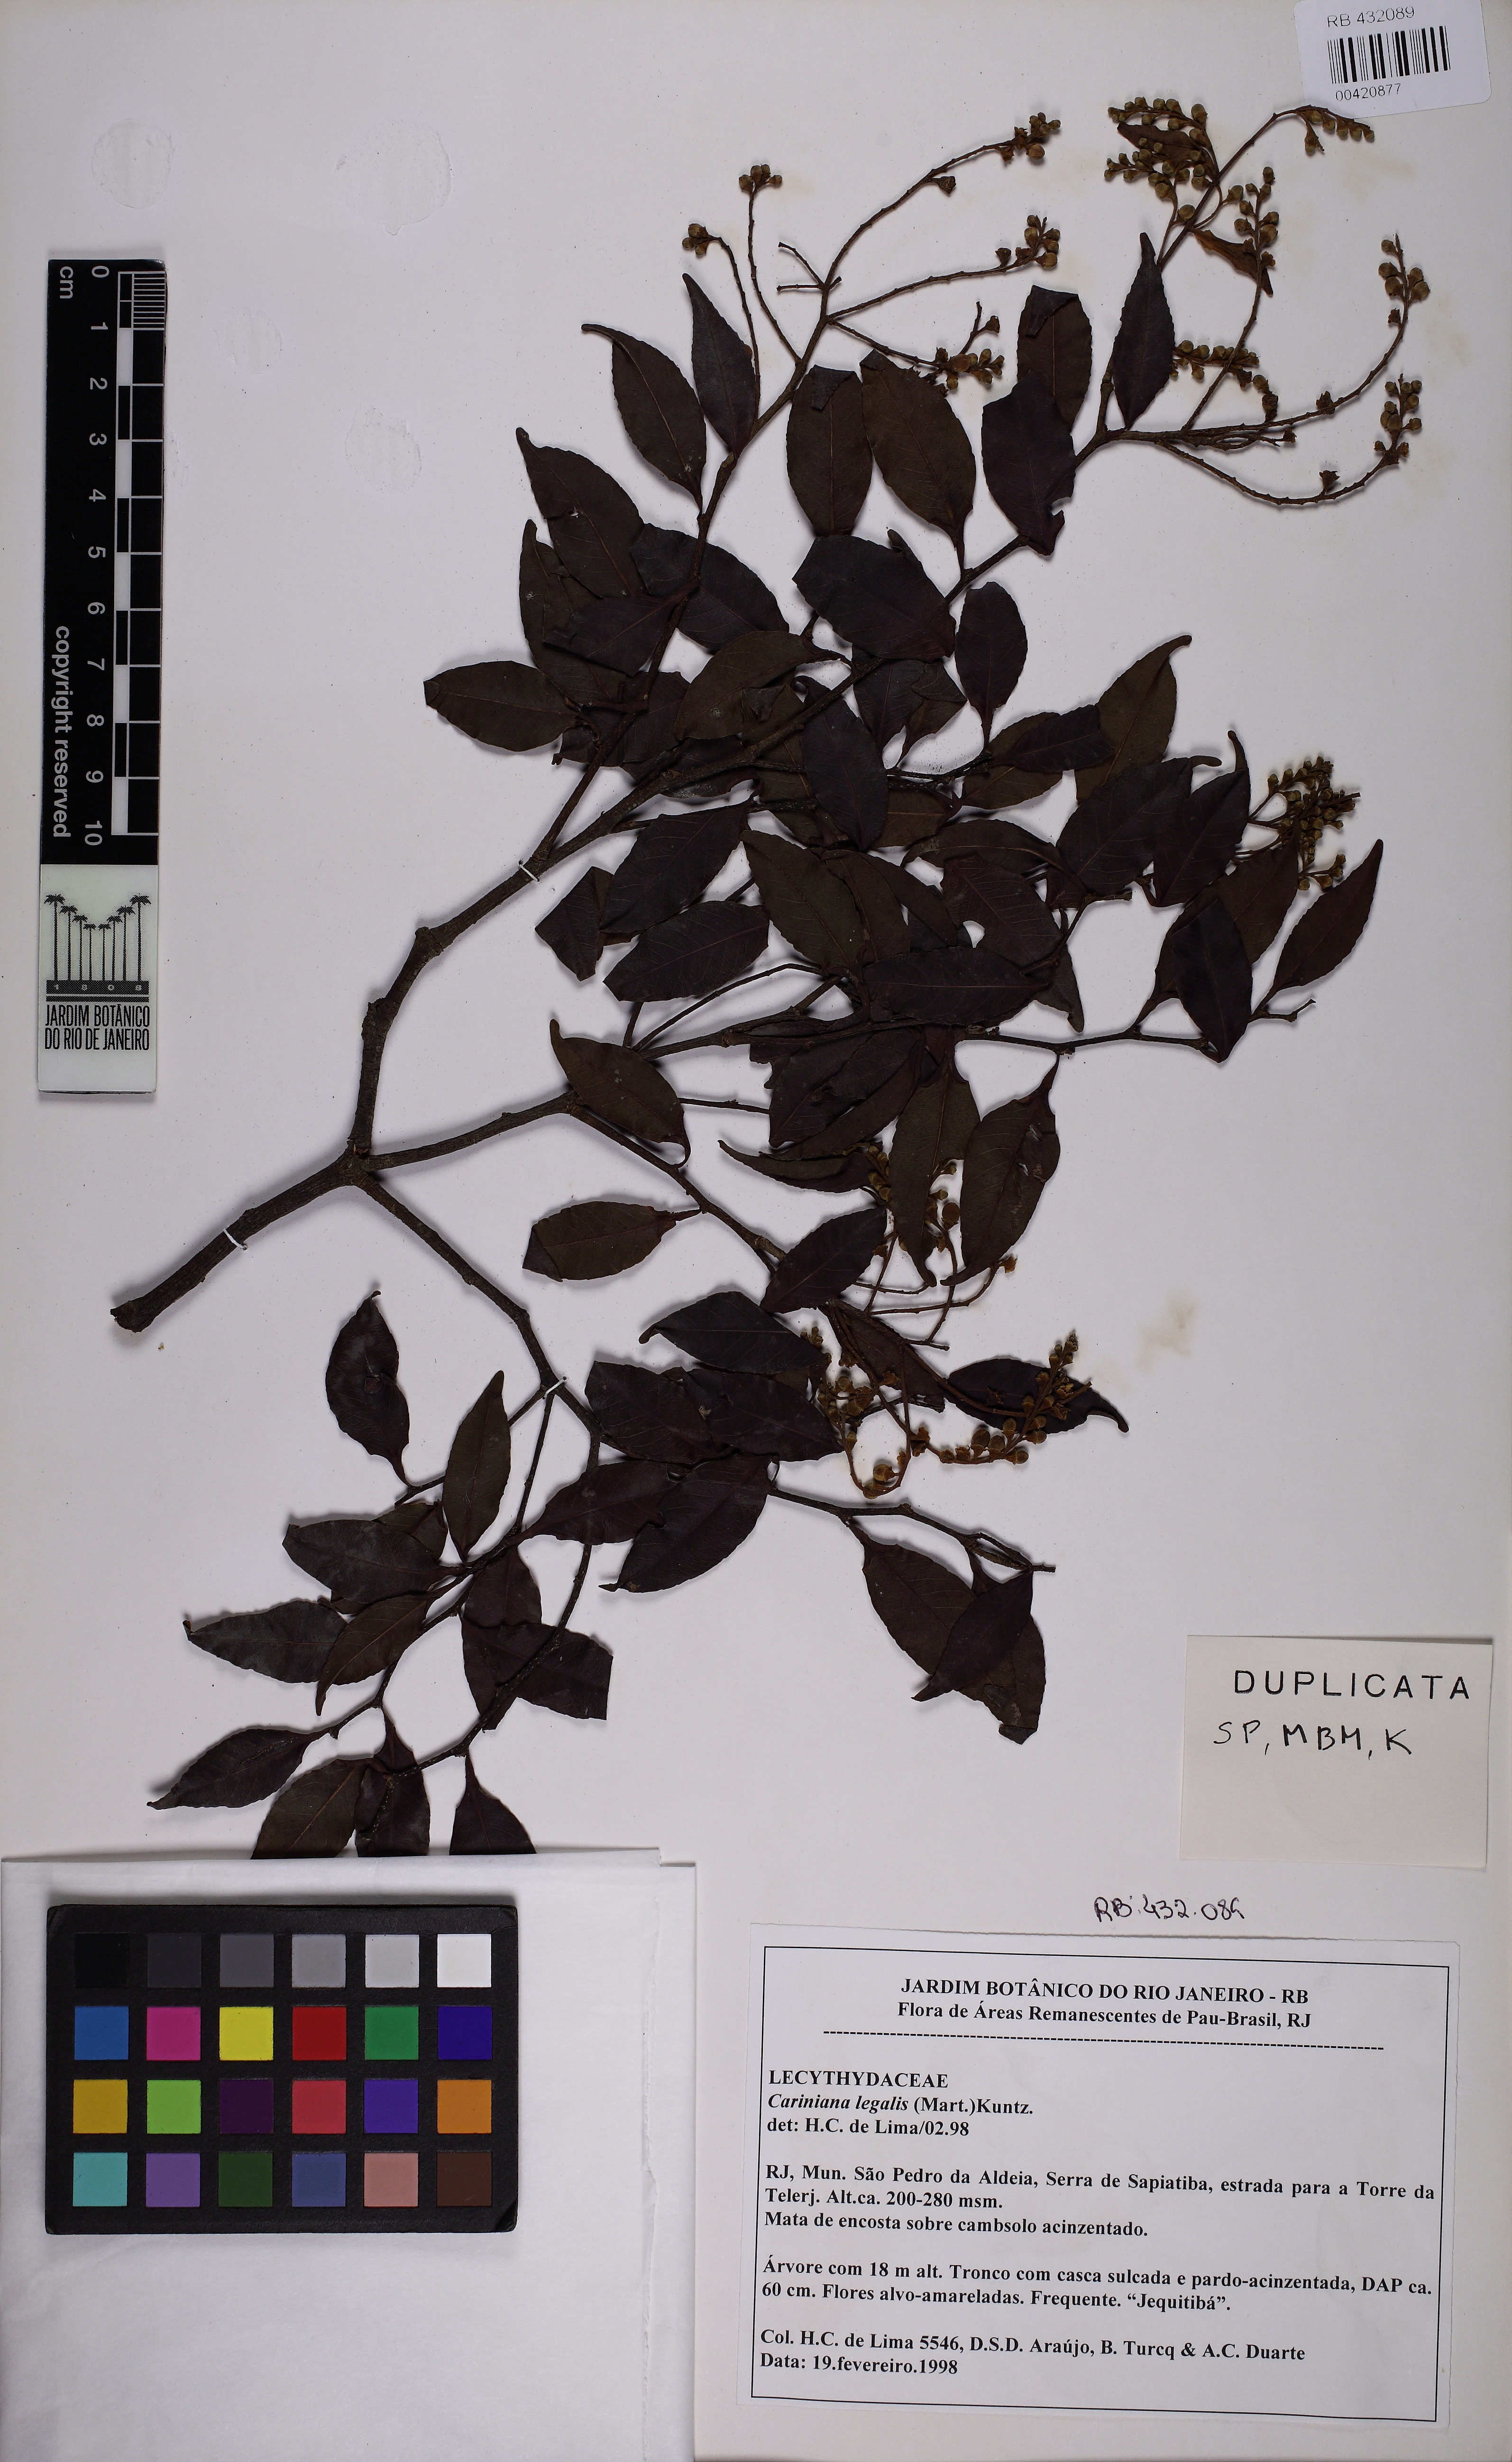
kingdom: Plantae
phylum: Tracheophyta
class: Magnoliopsida
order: Ericales
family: Lecythidaceae
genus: Cariniana
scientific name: Cariniana legalis
